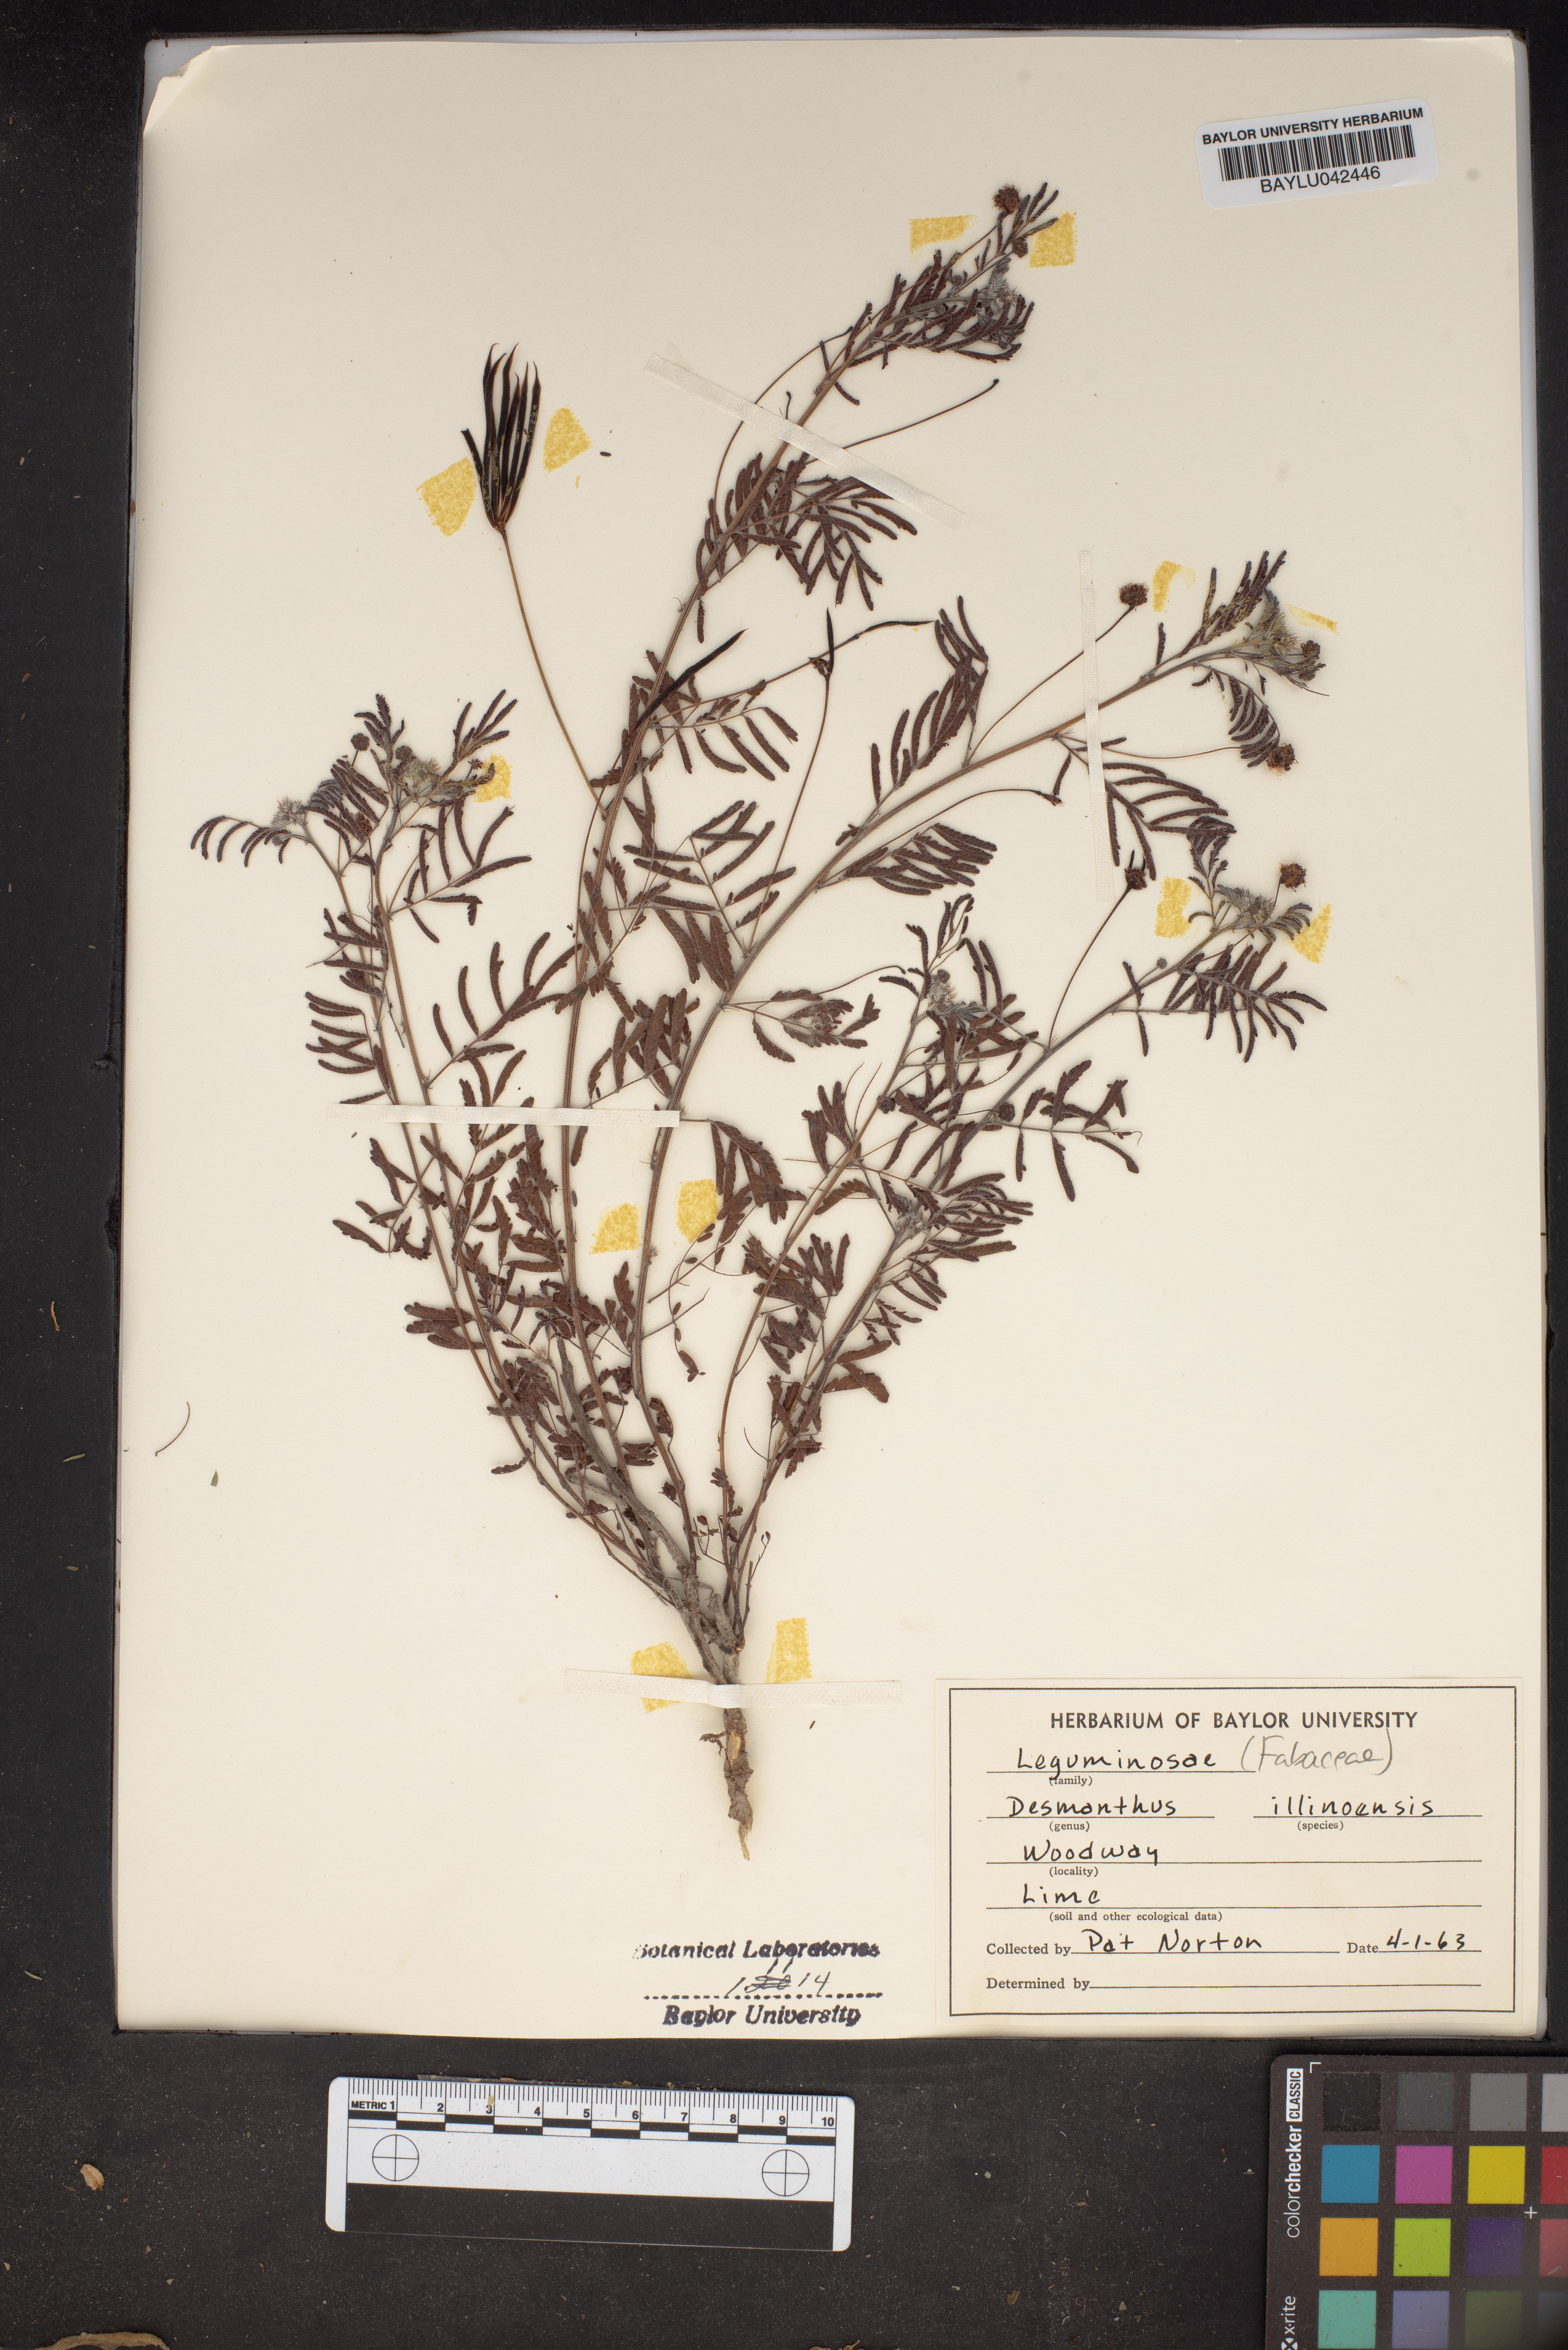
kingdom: Plantae
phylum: Tracheophyta
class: Magnoliopsida
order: Fabales
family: Fabaceae
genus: Desmanthus
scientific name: Desmanthus illinoensis
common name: Illinois bundle-flower
